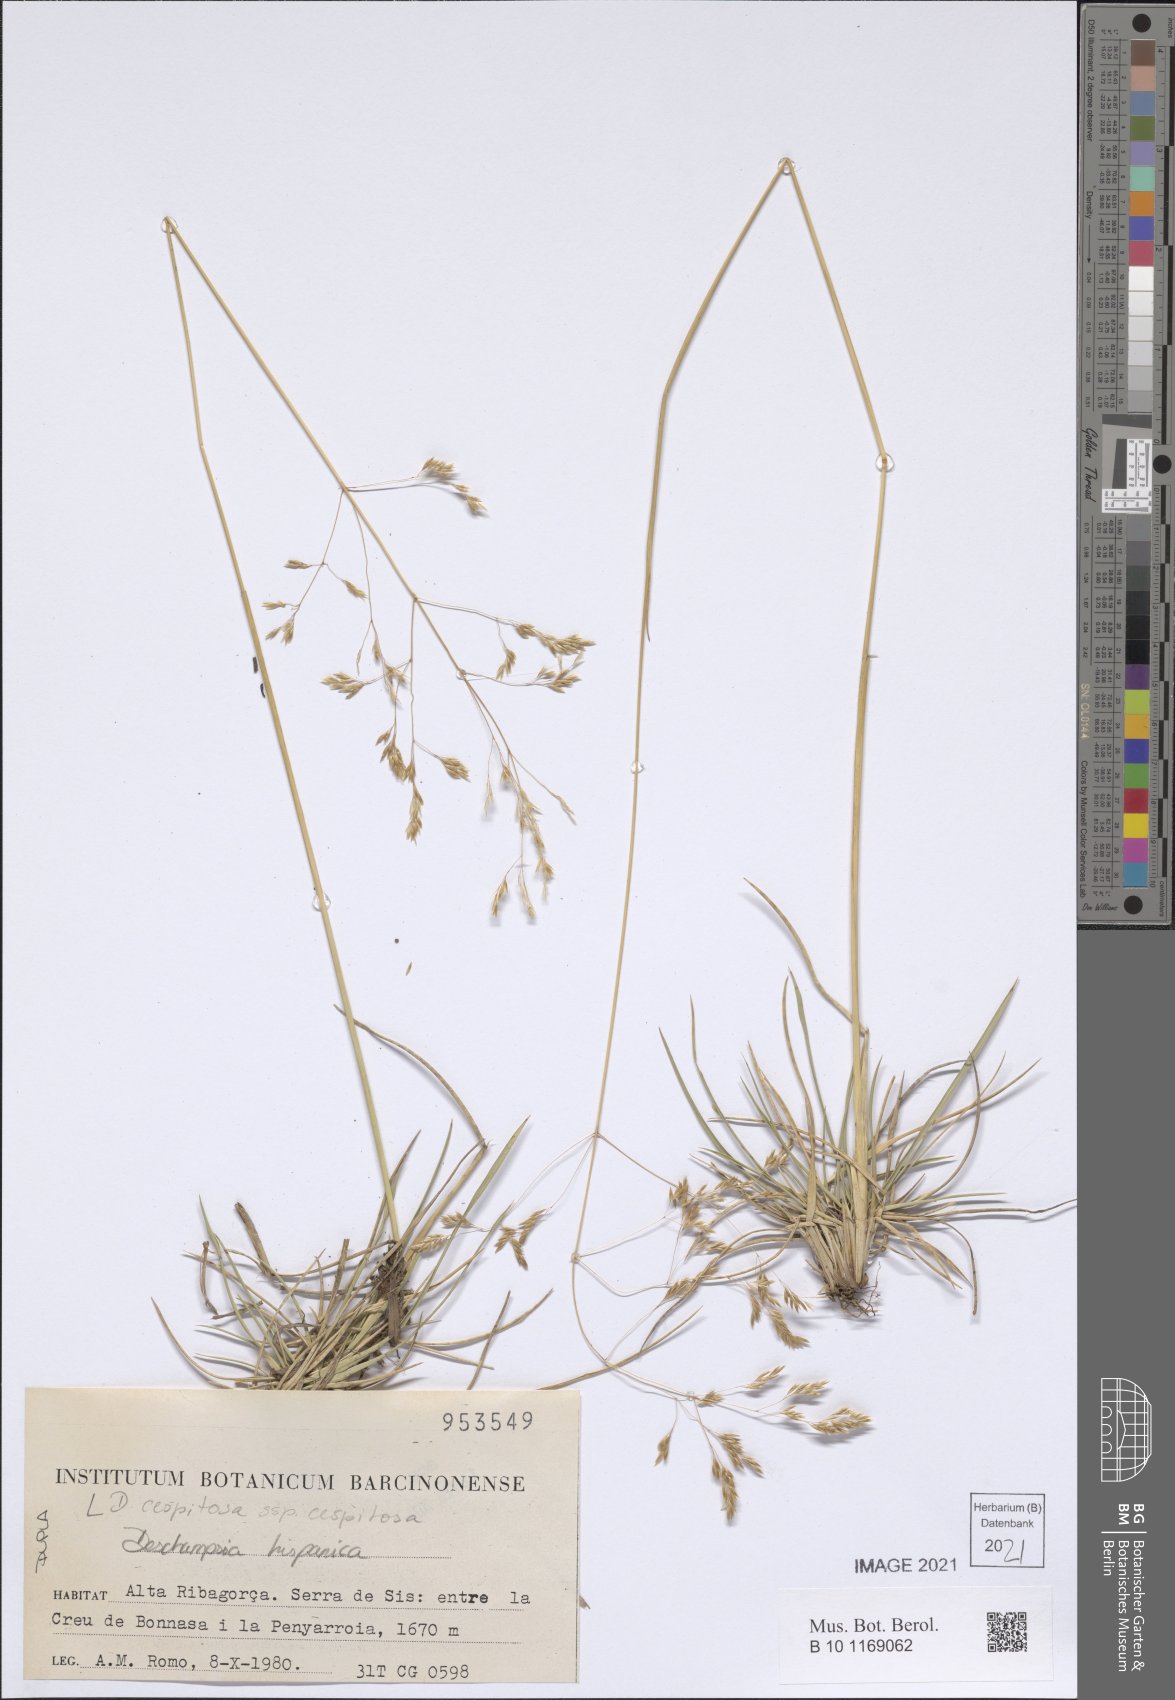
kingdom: Plantae
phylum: Tracheophyta
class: Liliopsida
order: Poales
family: Poaceae
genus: Deschampsia
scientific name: Deschampsia cespitosa
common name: Tufted hair-grass
